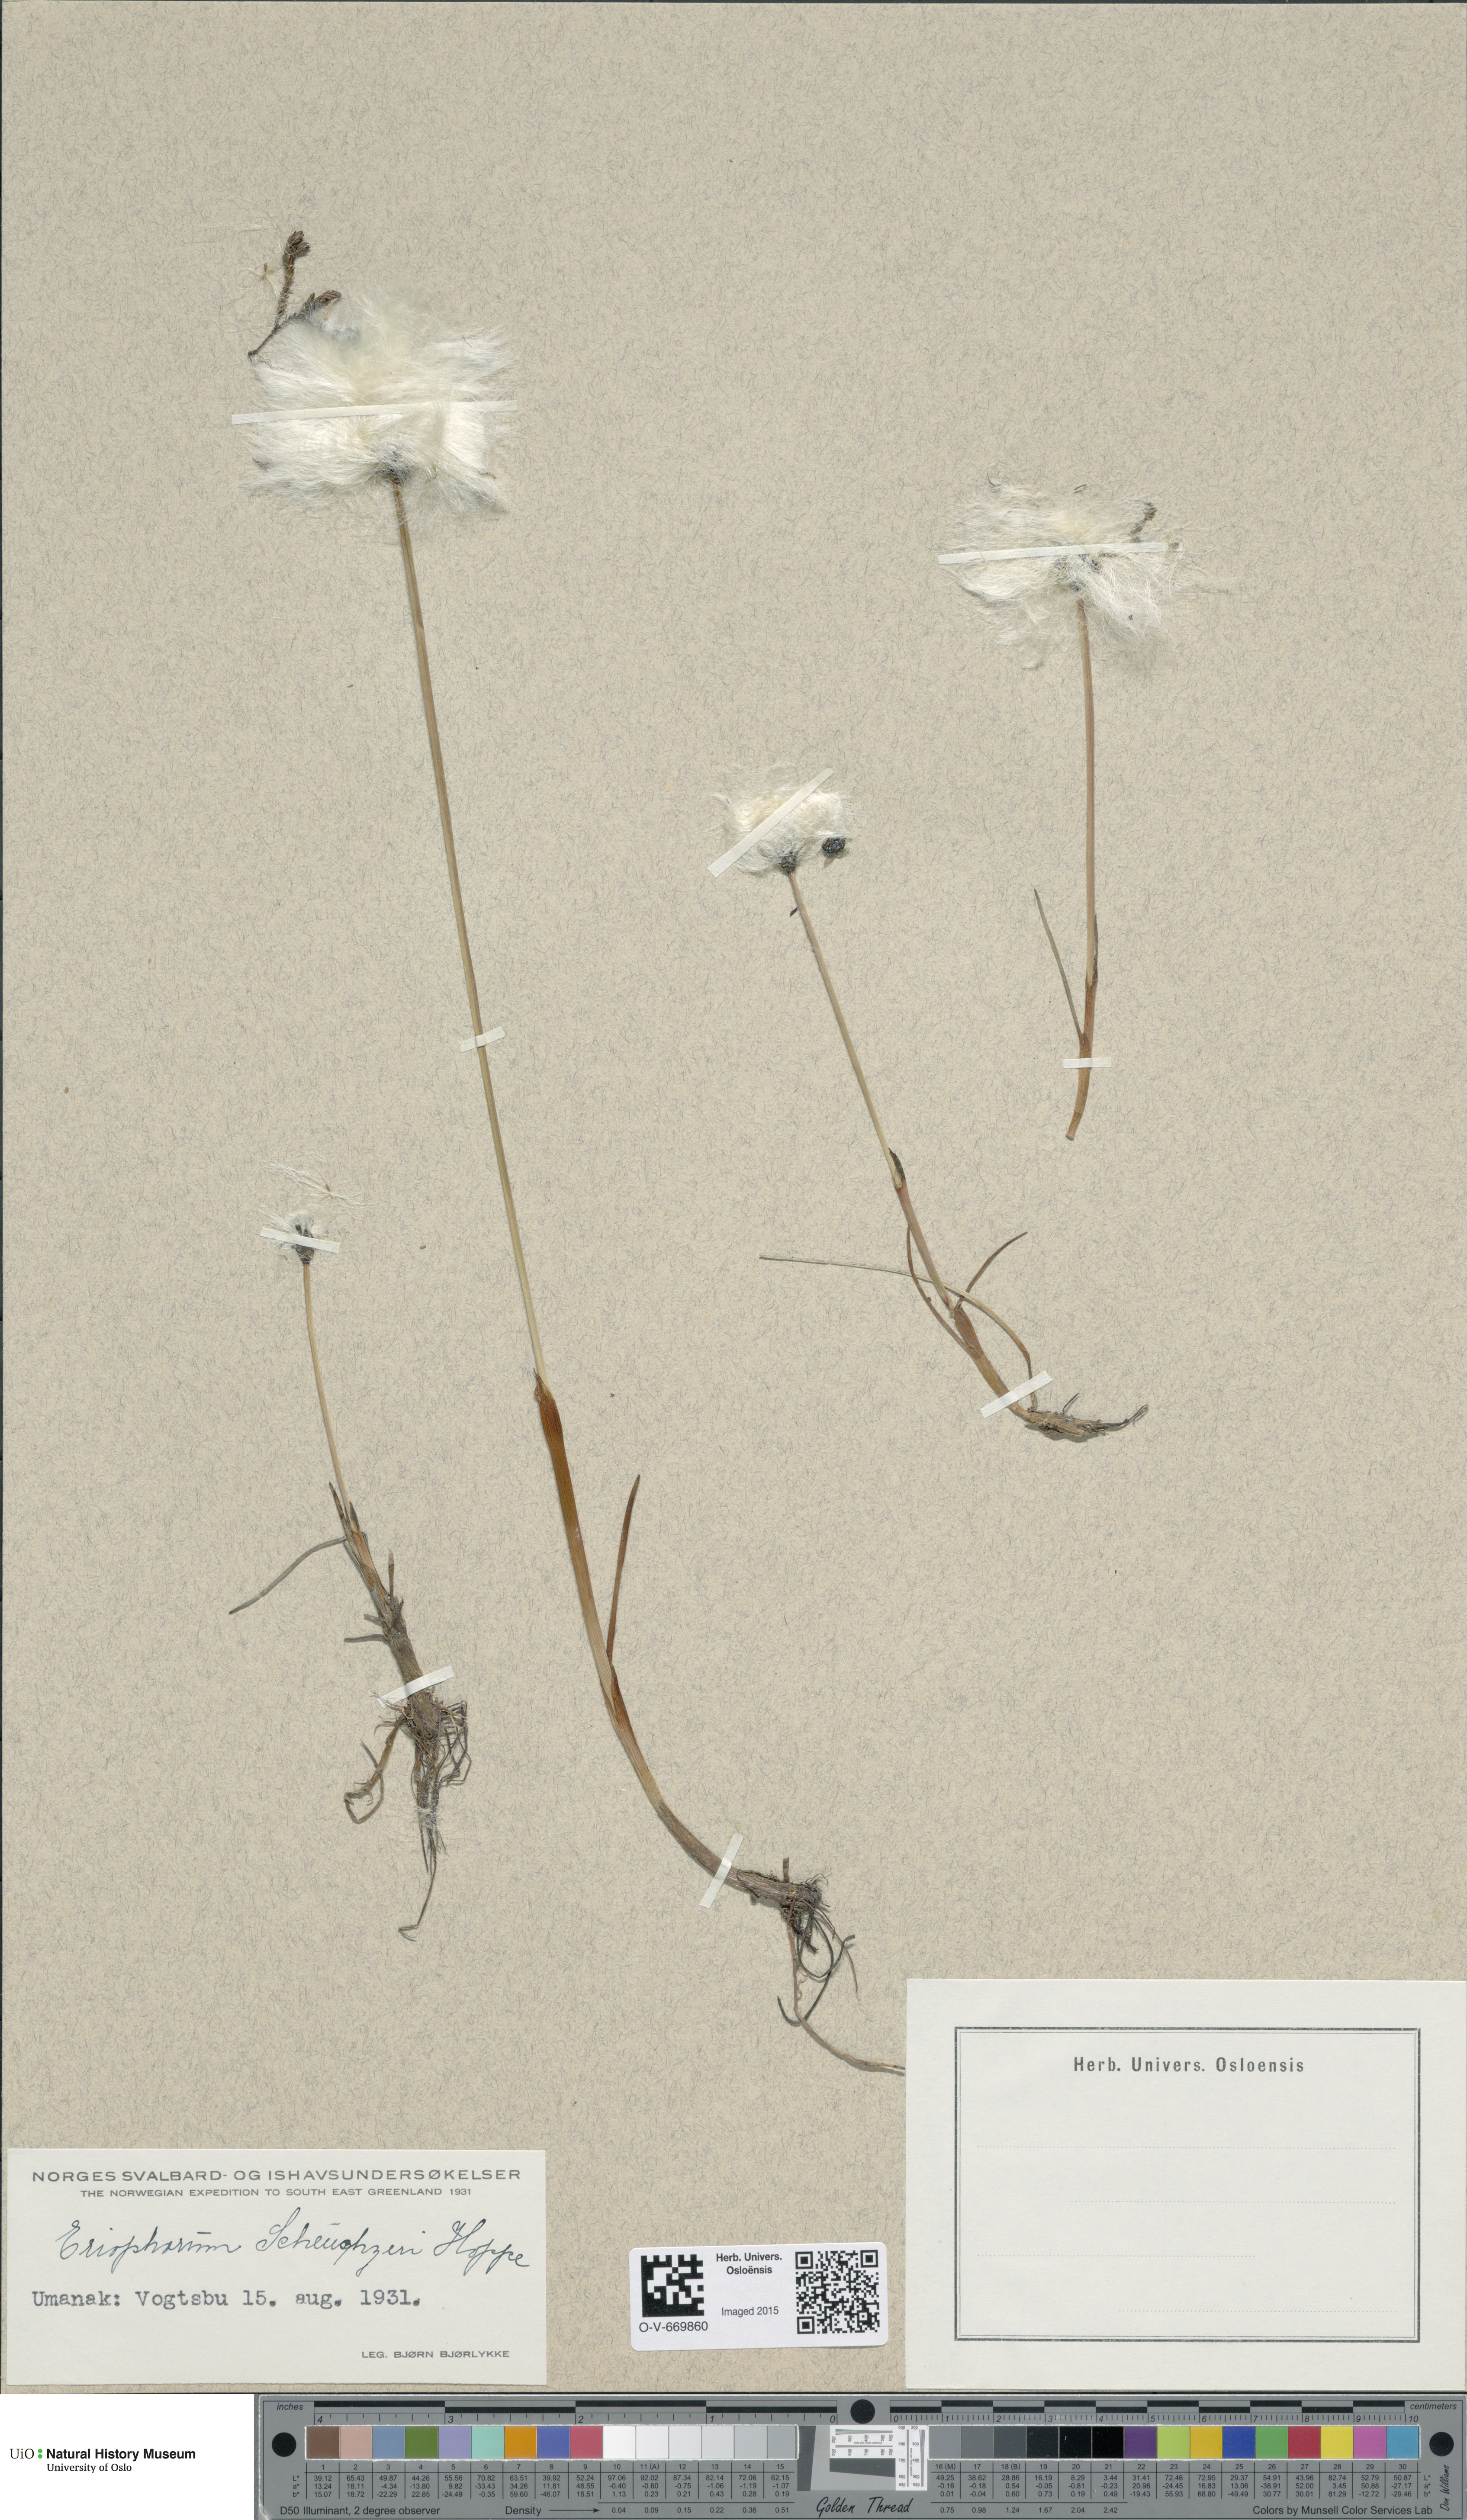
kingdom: Plantae
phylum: Tracheophyta
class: Liliopsida
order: Poales
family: Cyperaceae
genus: Eriophorum
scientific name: Eriophorum scheuchzeri
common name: Scheuchzer's cottongrass
